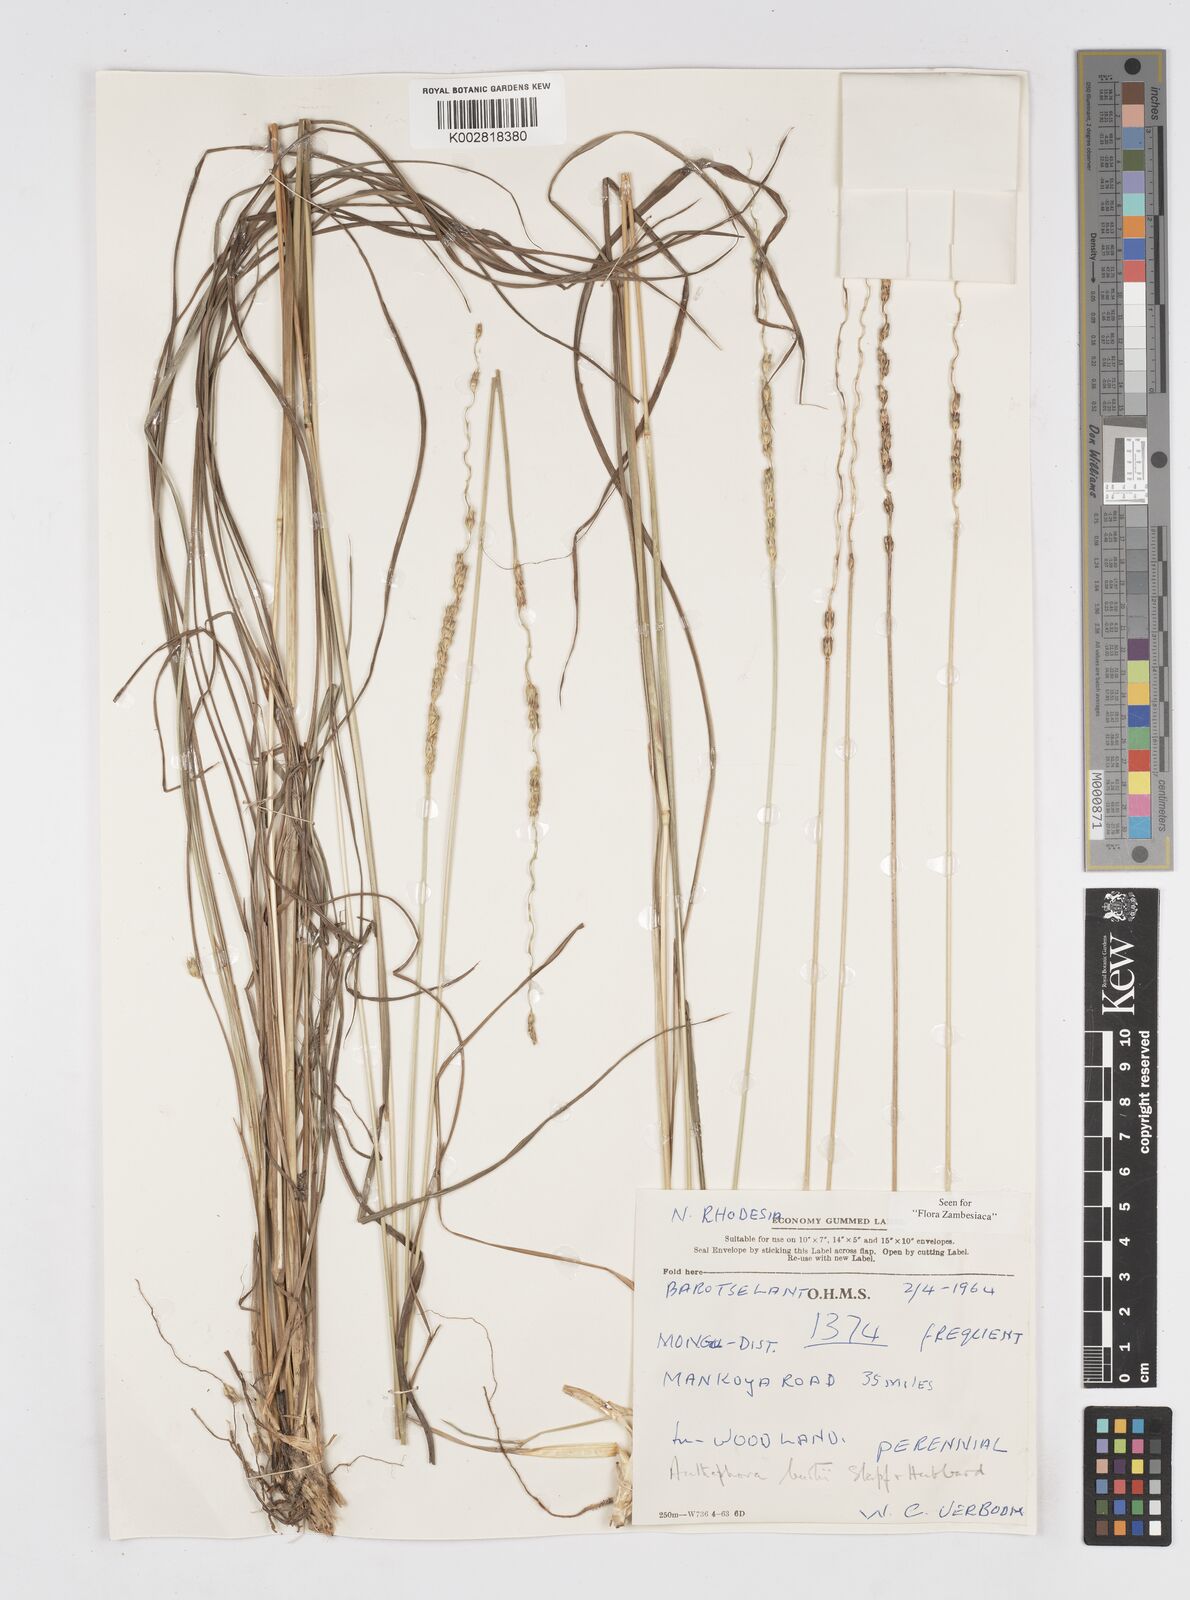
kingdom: Plantae
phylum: Tracheophyta
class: Liliopsida
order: Poales
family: Poaceae
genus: Anthephora
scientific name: Anthephora elongata
